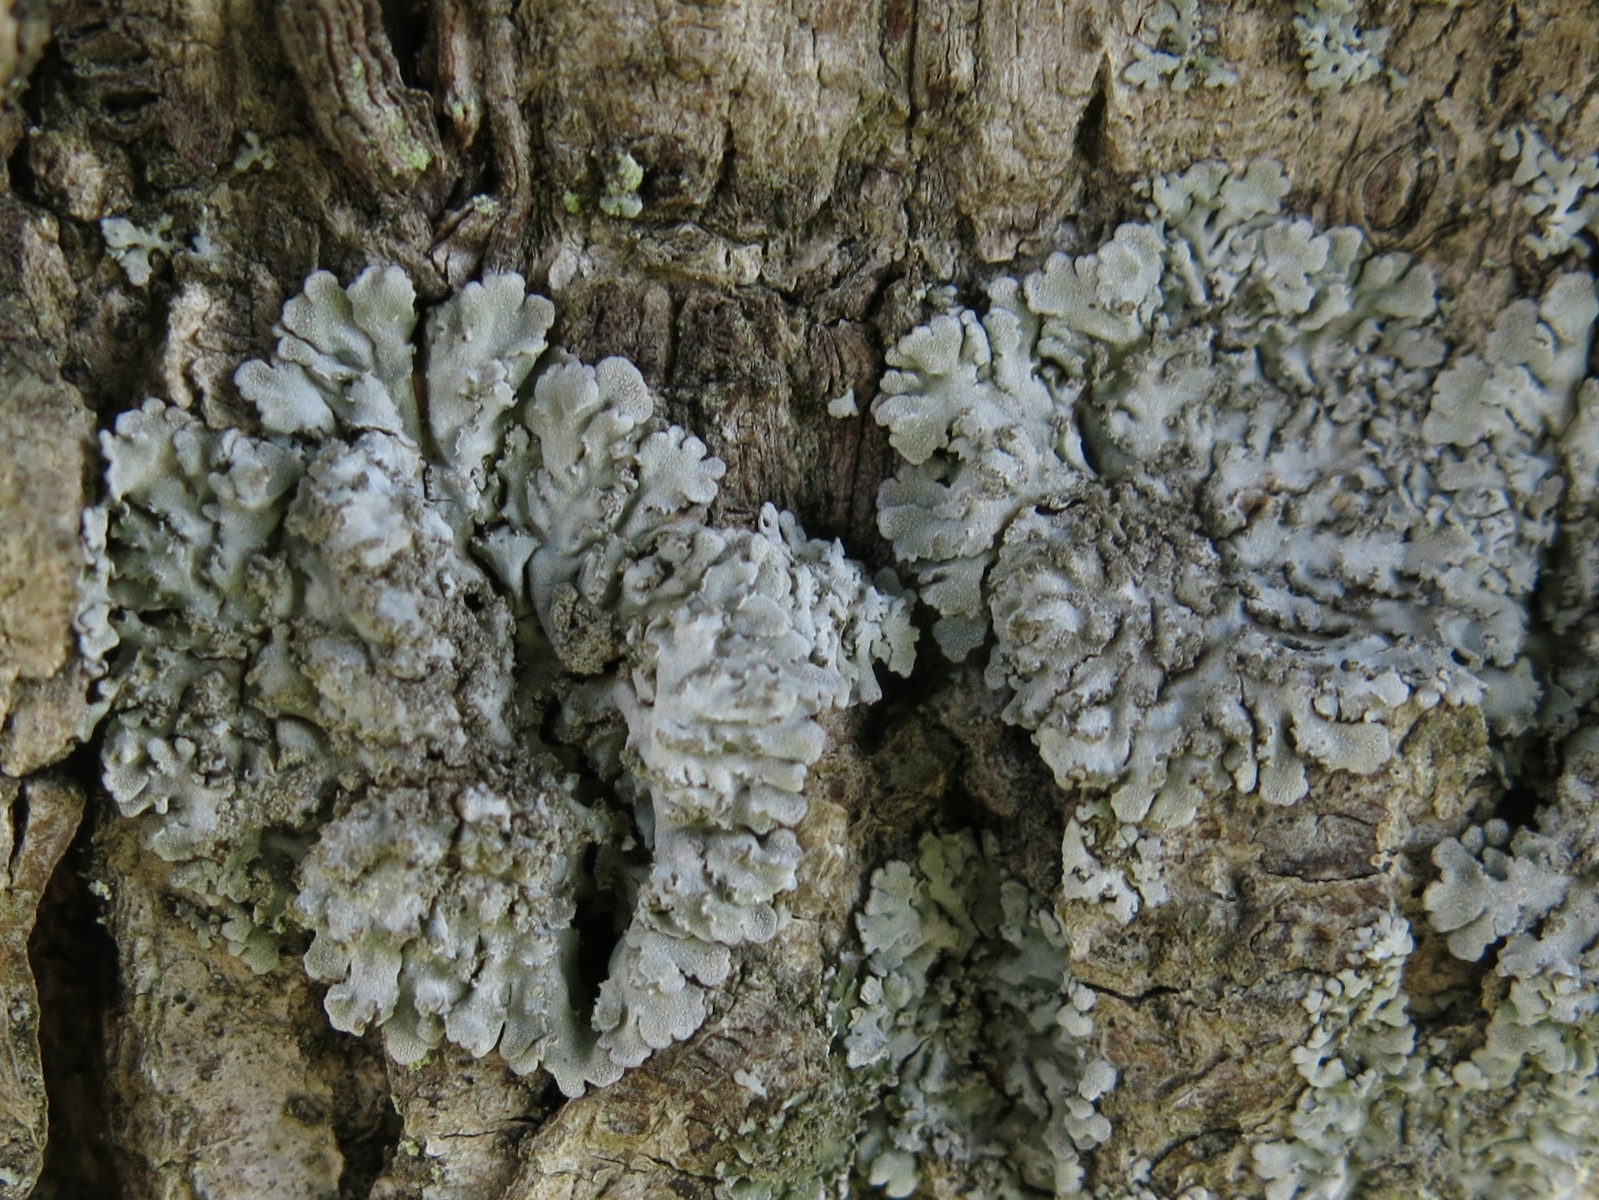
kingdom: Fungi
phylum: Ascomycota
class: Lecanoromycetes
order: Caliciales
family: Physciaceae
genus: Physconia
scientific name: Physconia
